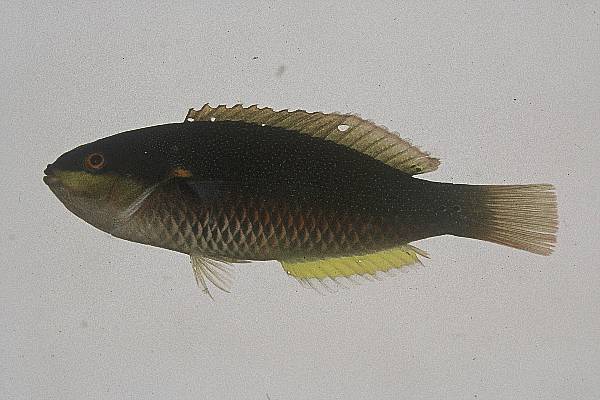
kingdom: Animalia
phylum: Chordata
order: Perciformes
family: Labridae
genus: Stethojulis
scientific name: Stethojulis albovittata
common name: Bluelined wrasse
